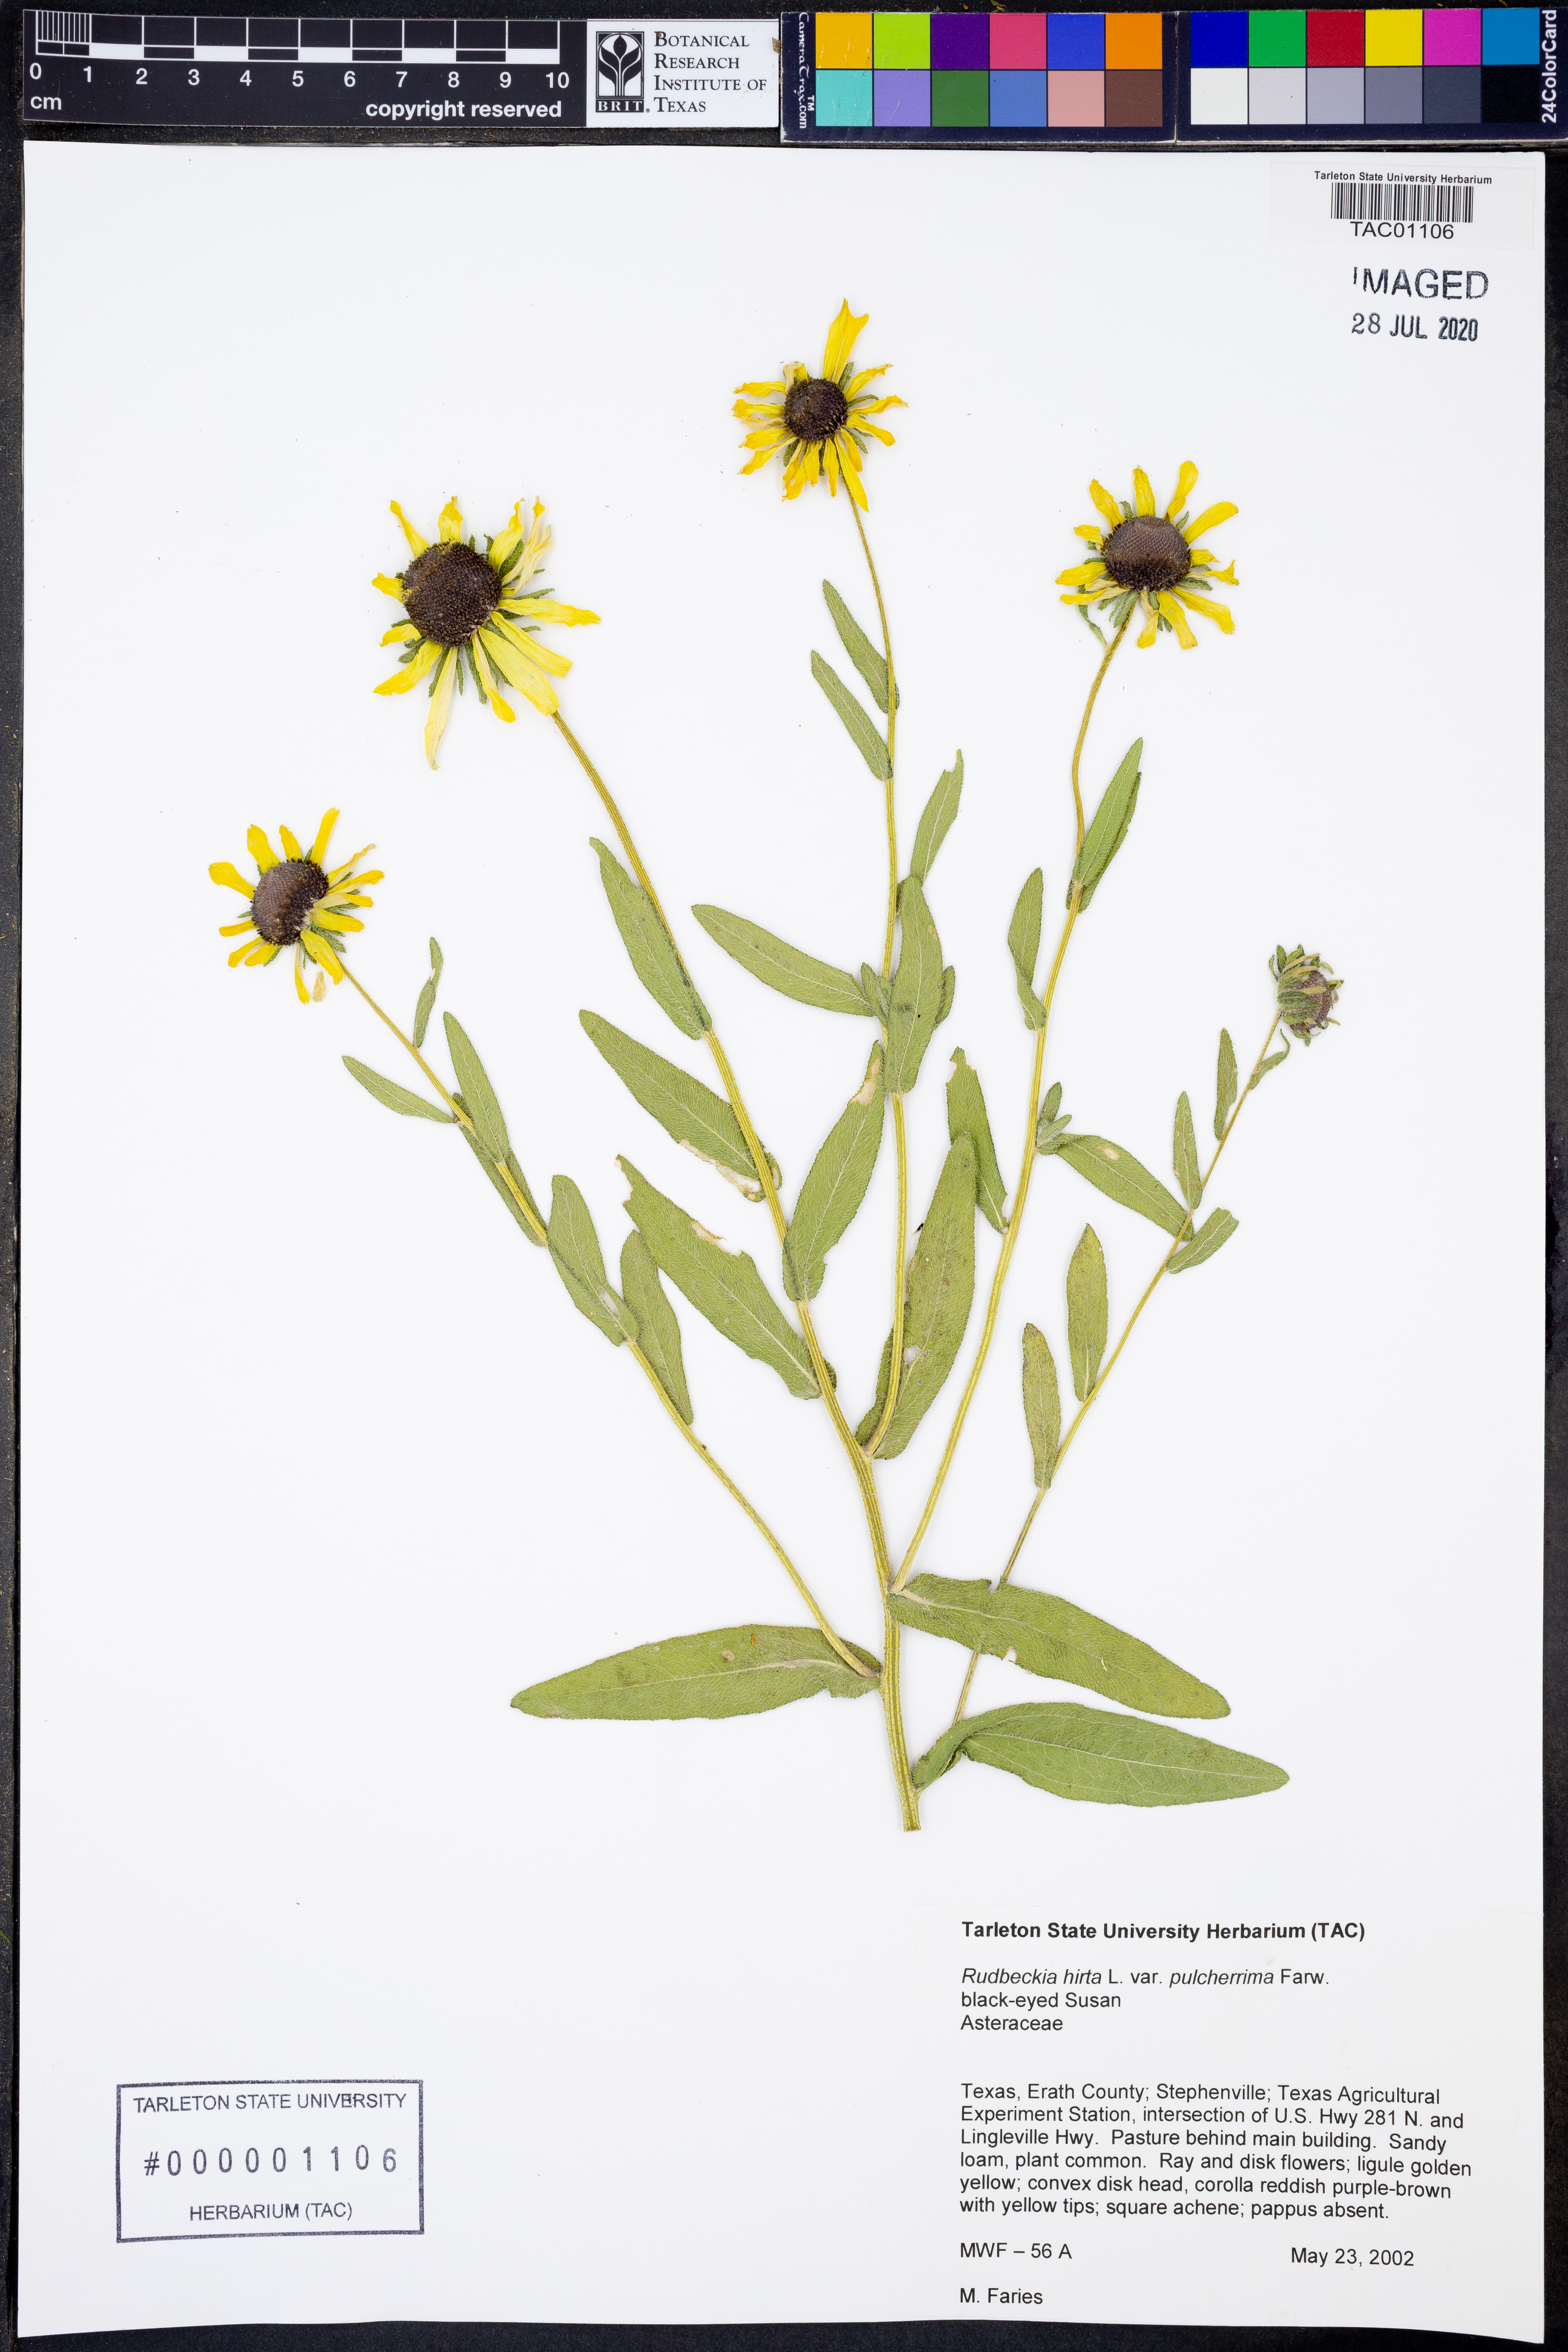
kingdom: Plantae
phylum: Tracheophyta
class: Magnoliopsida
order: Asterales
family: Asteraceae
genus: Rudbeckia
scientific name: Rudbeckia hirta
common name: Black-eyed-susan
